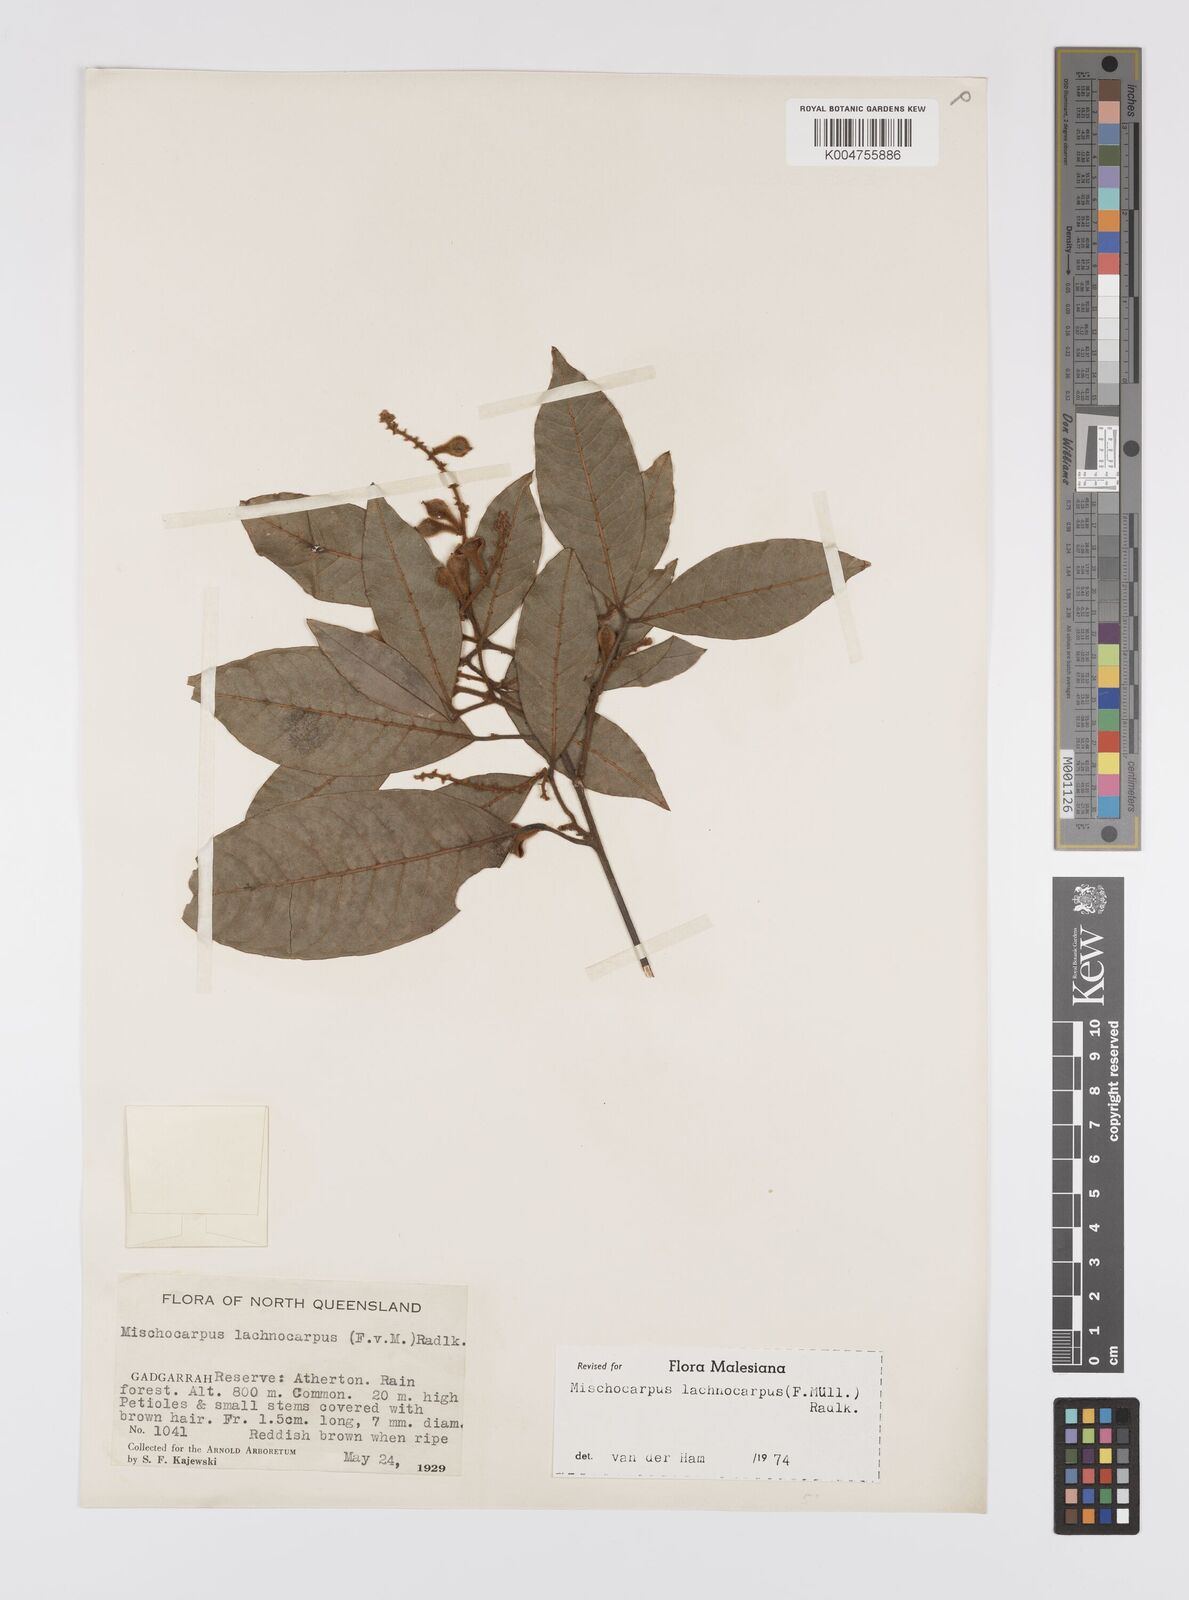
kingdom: Plantae
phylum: Tracheophyta
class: Magnoliopsida
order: Sapindales
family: Sapindaceae
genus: Mischocarpus
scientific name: Mischocarpus lachnocarpus
